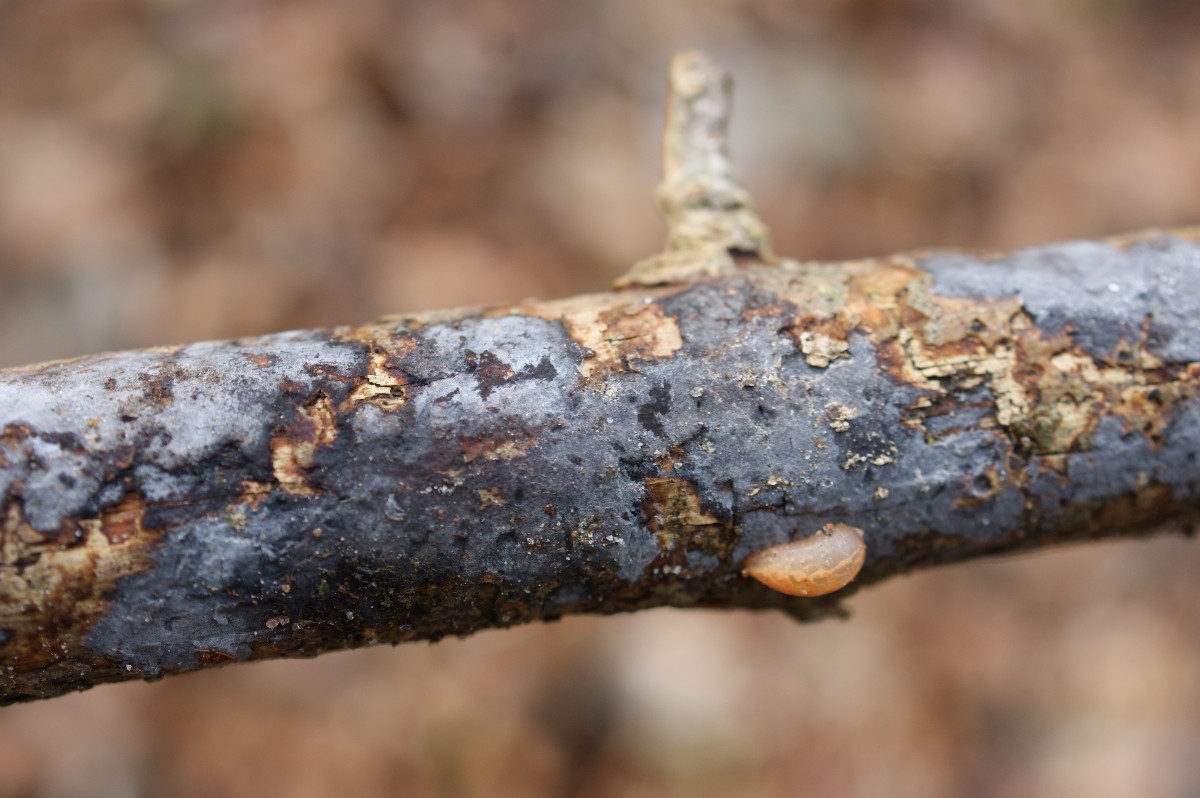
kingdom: Fungi
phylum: Basidiomycota
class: Agaricomycetes
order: Russulales
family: Peniophoraceae
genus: Peniophora
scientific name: Peniophora limitata
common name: mørkrandet voksskind
